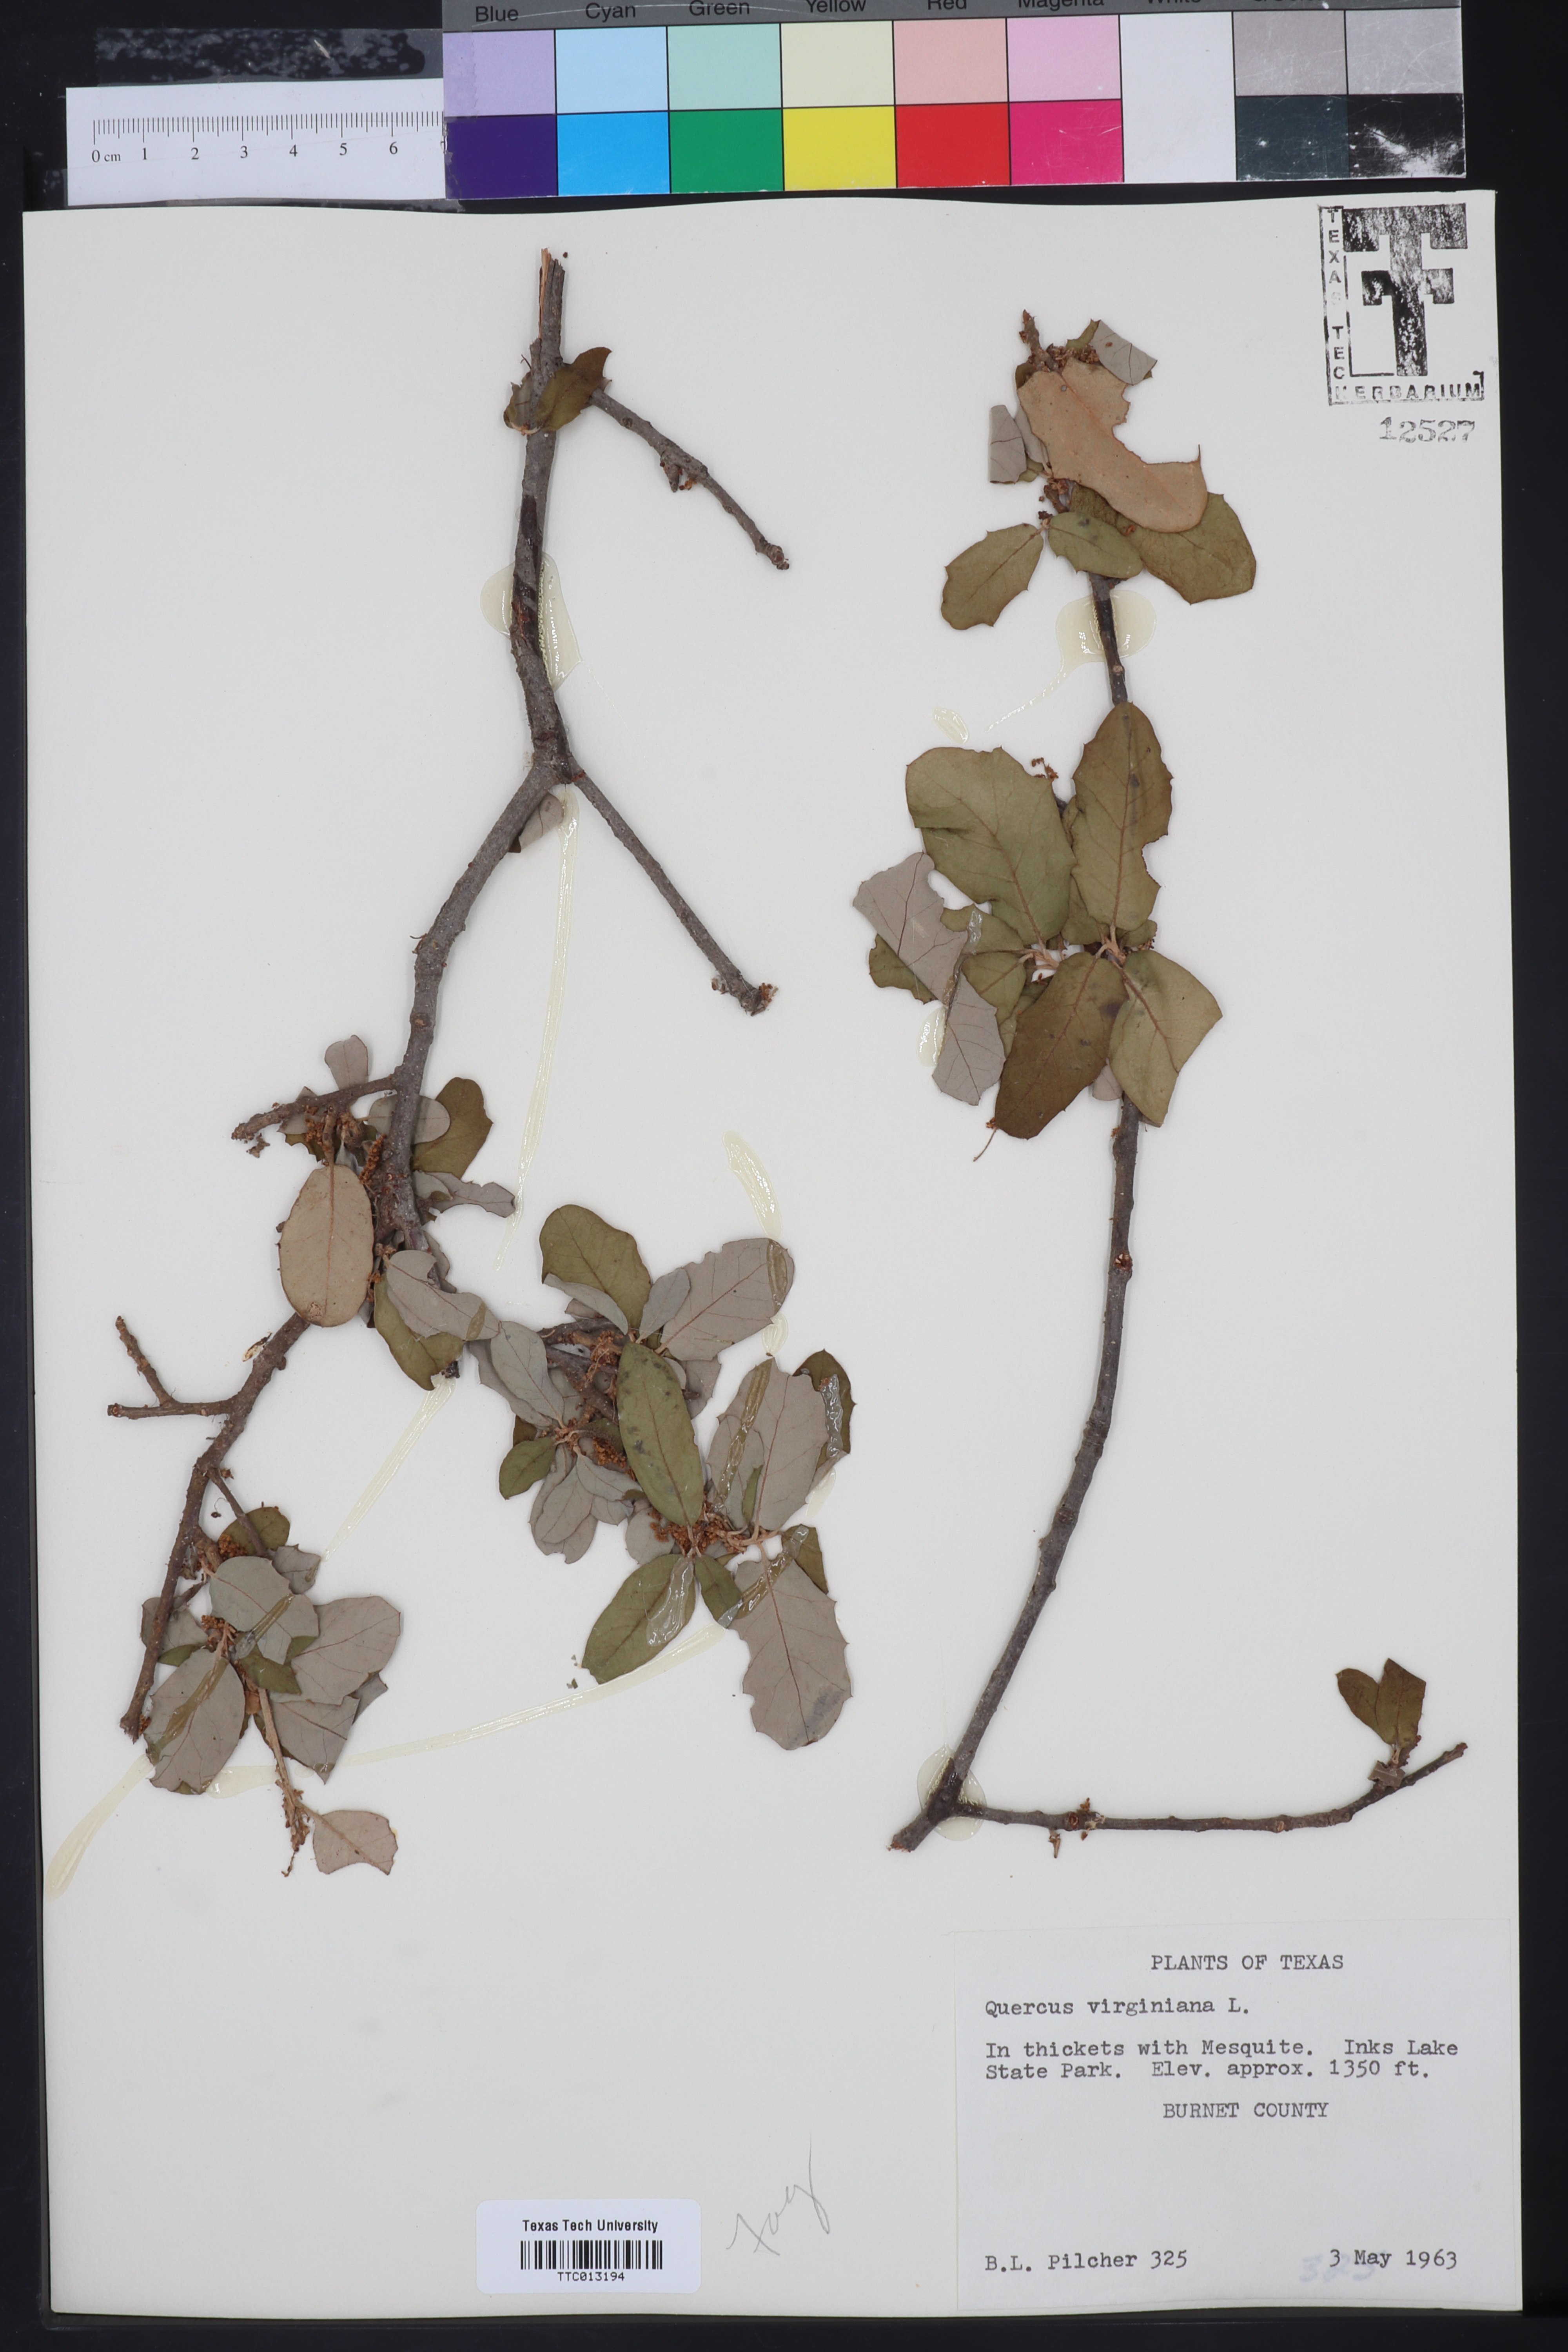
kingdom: Plantae
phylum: Tracheophyta
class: Magnoliopsida
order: Fagales
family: Fagaceae
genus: Quercus
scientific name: Quercus virginiana
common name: Southern live oak
